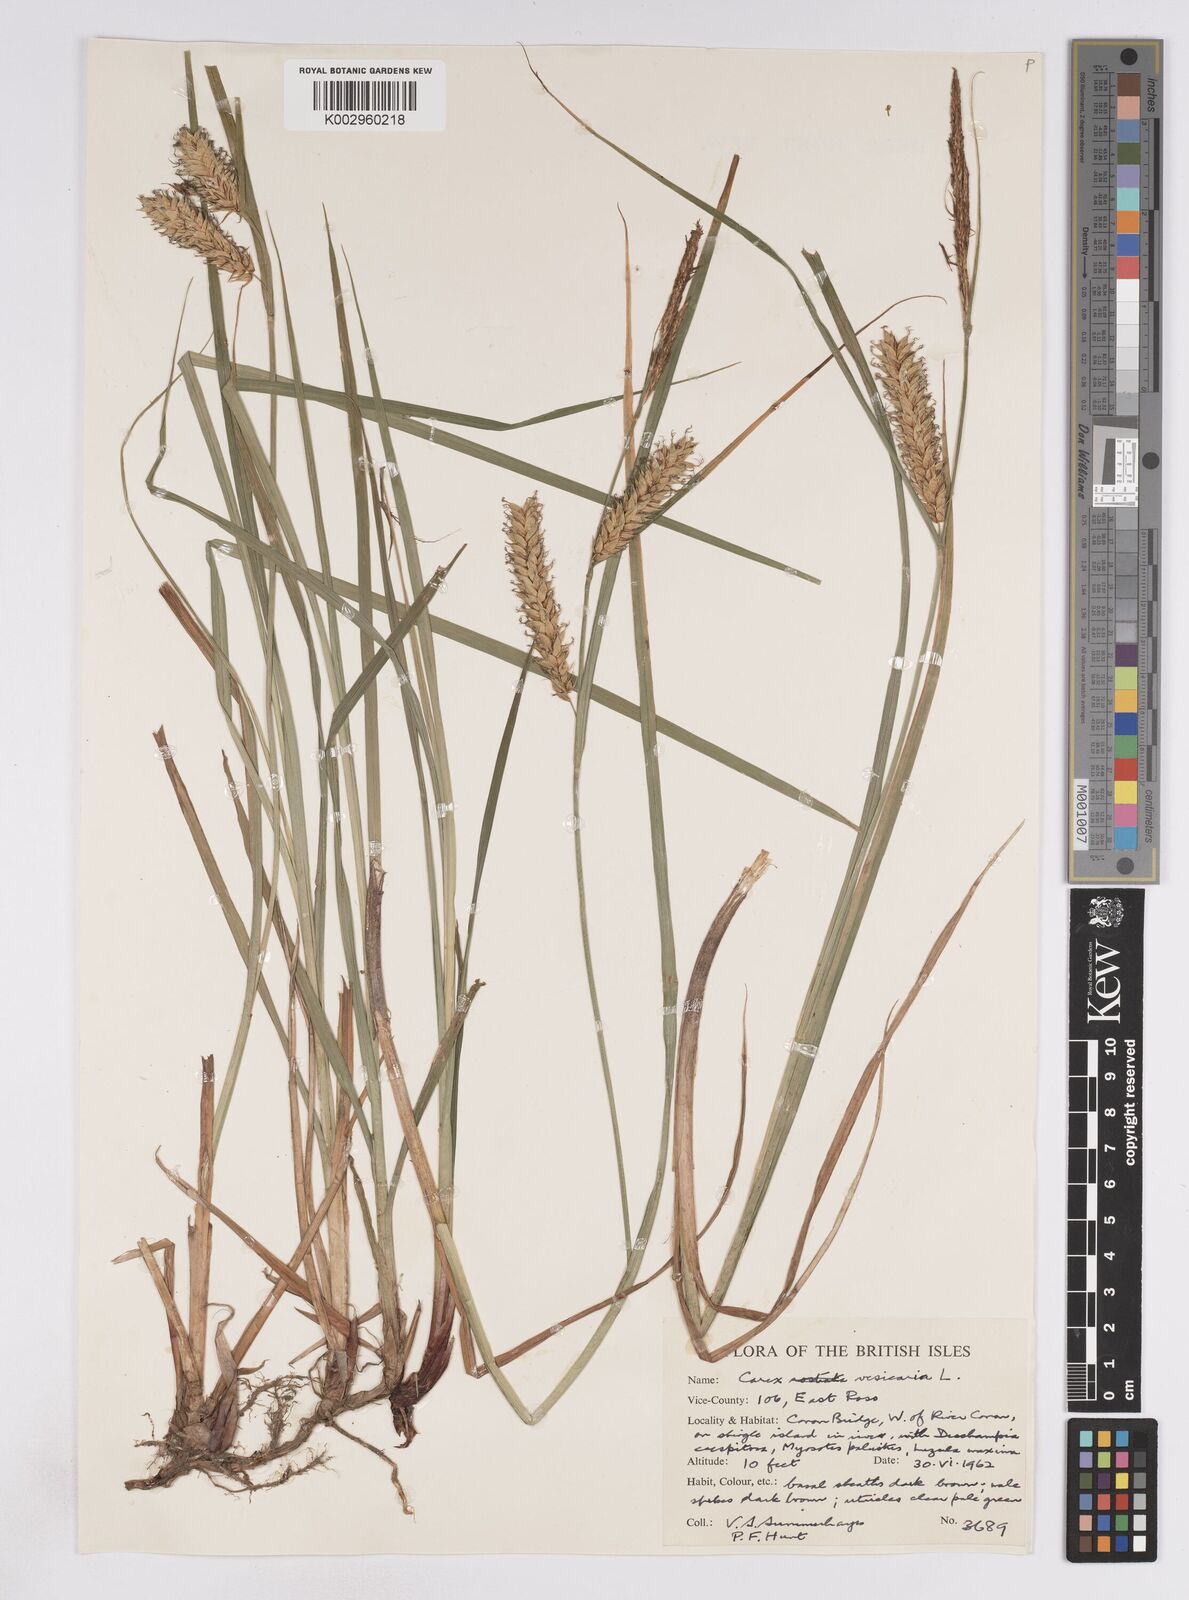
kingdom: Plantae
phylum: Tracheophyta
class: Liliopsida
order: Poales
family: Cyperaceae
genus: Carex
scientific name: Carex vesicaria
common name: Bladder-sedge
